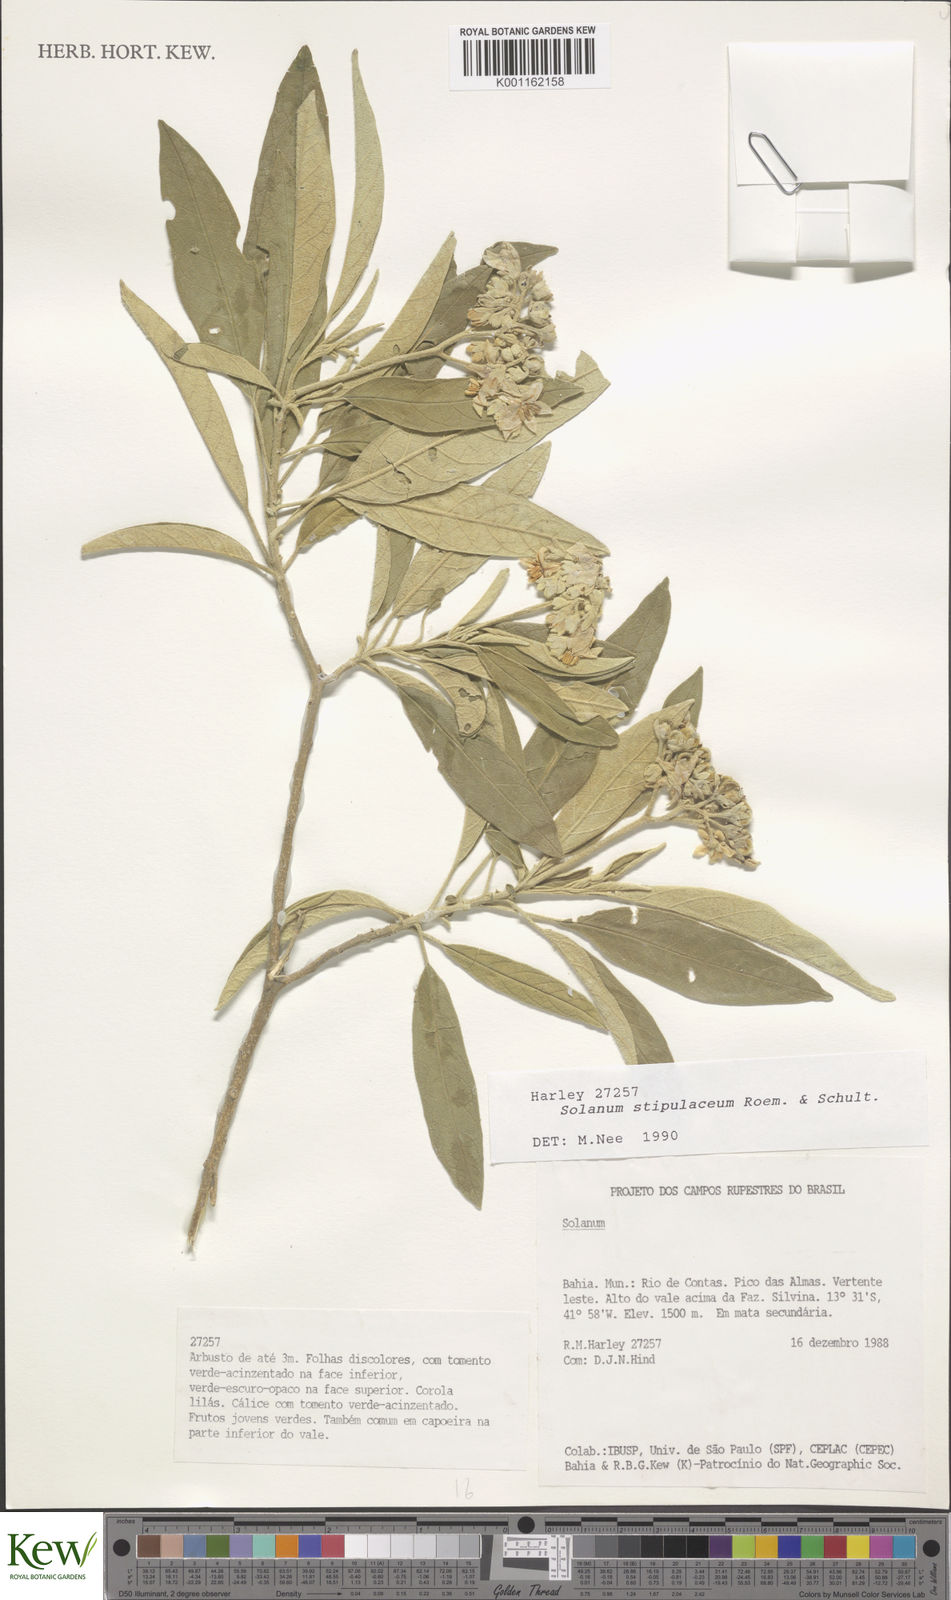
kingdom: Plantae
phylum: Tracheophyta
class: Magnoliopsida
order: Solanales
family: Solanaceae
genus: Solanum
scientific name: Solanum stipulaceum
